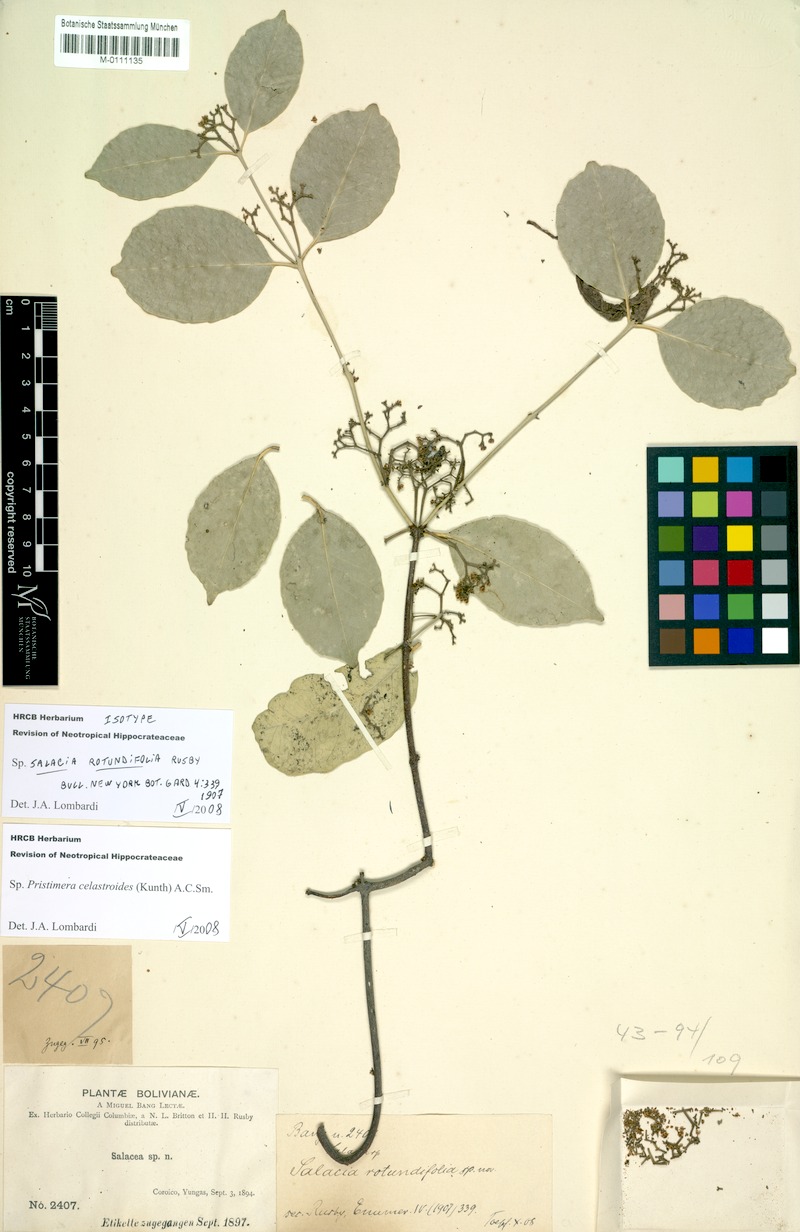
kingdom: Plantae
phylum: Tracheophyta
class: Magnoliopsida
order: Celastrales
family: Celastraceae
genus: Pristimera
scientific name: Pristimera celastroides
